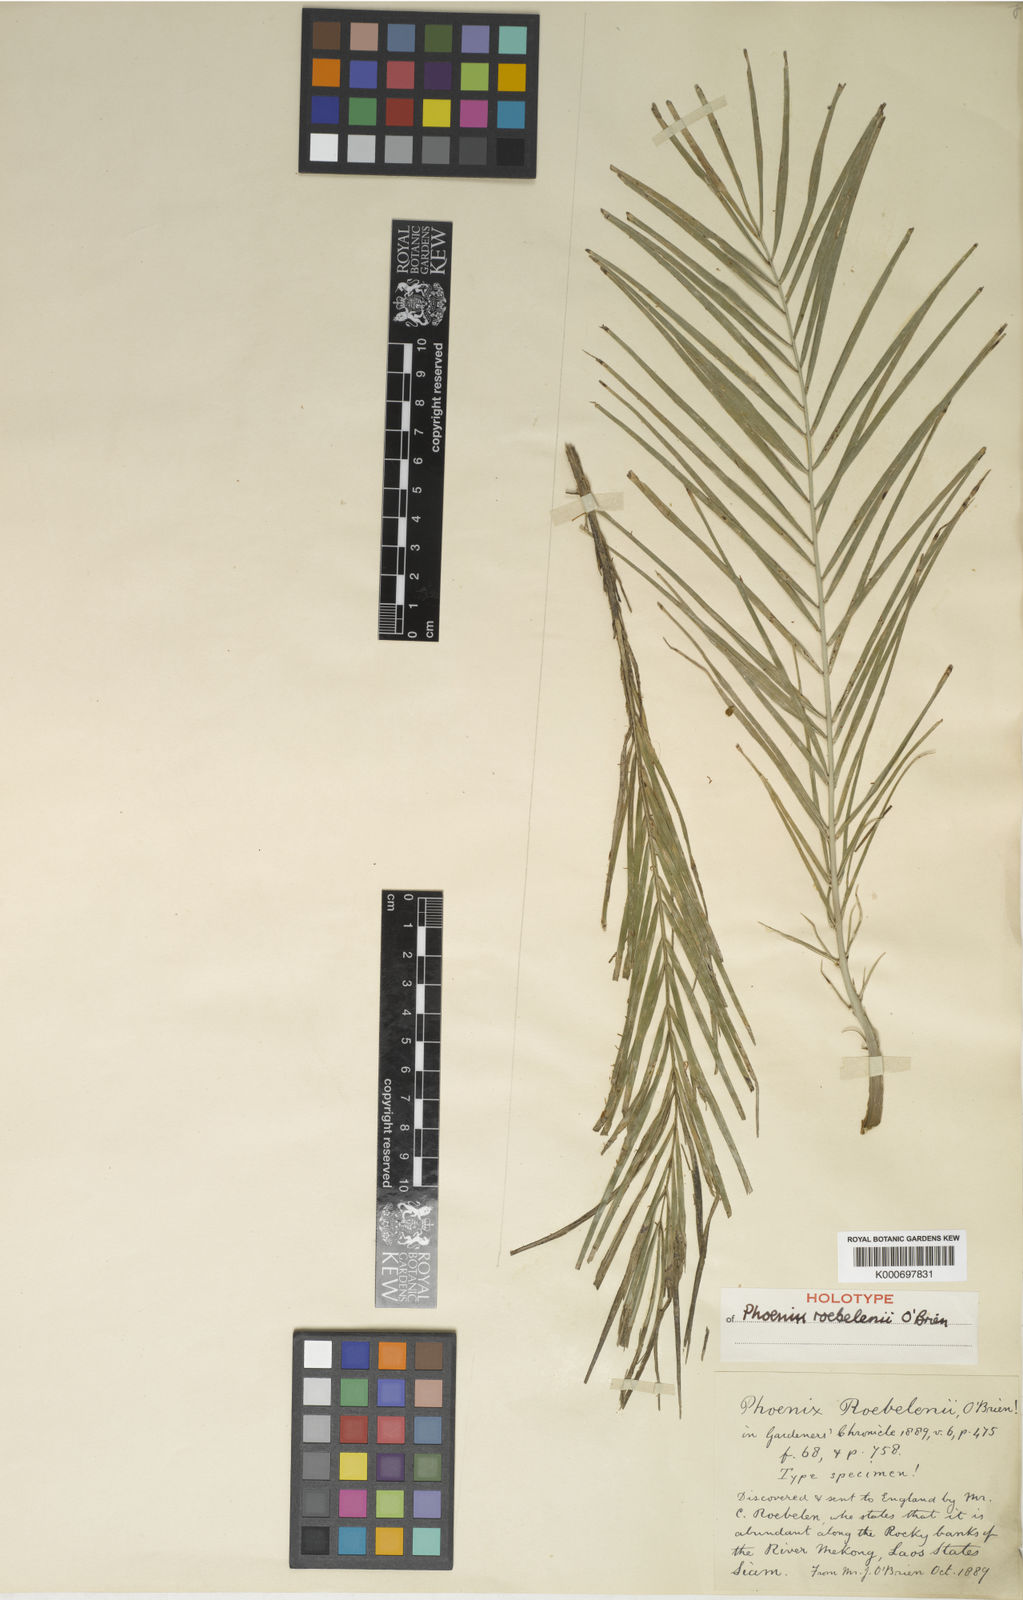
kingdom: Plantae
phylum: Tracheophyta
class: Liliopsida
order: Arecales
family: Arecaceae
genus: Phoenix
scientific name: Phoenix roebelenii
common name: Roebelin palm
